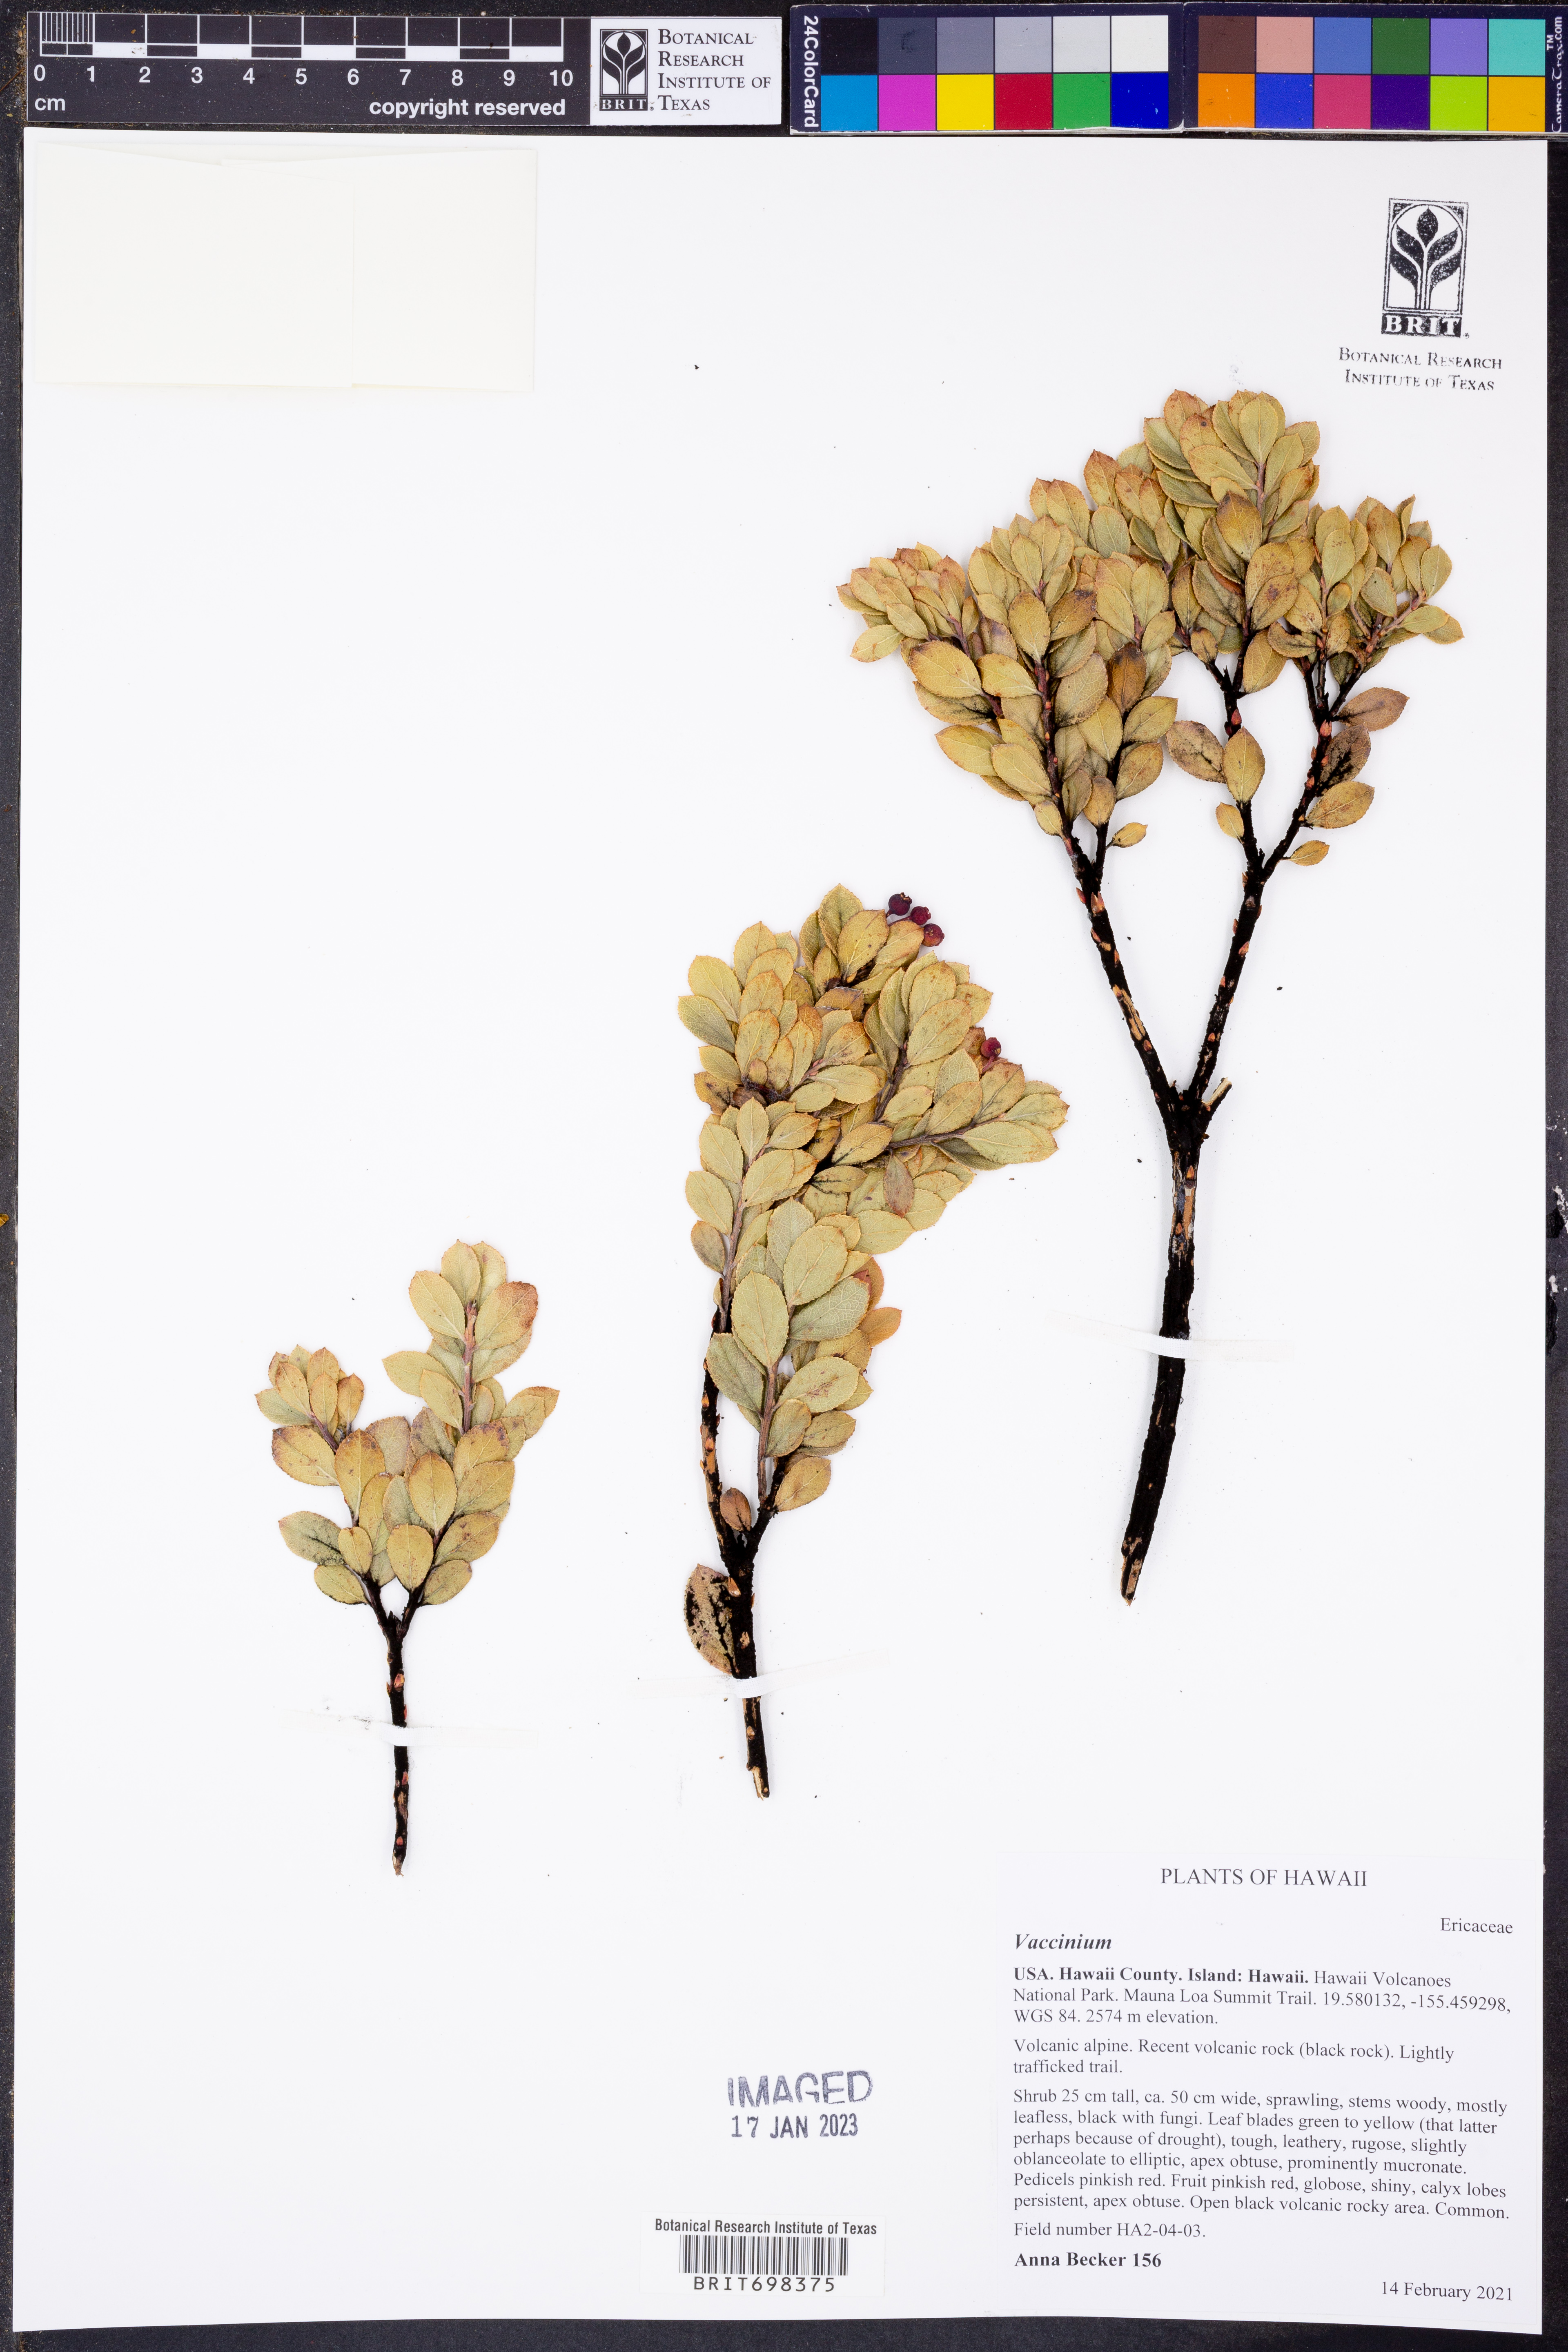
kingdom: Plantae
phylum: Tracheophyta
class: Magnoliopsida
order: Ericales
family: Ericaceae
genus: Vaccinium
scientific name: Vaccinium
